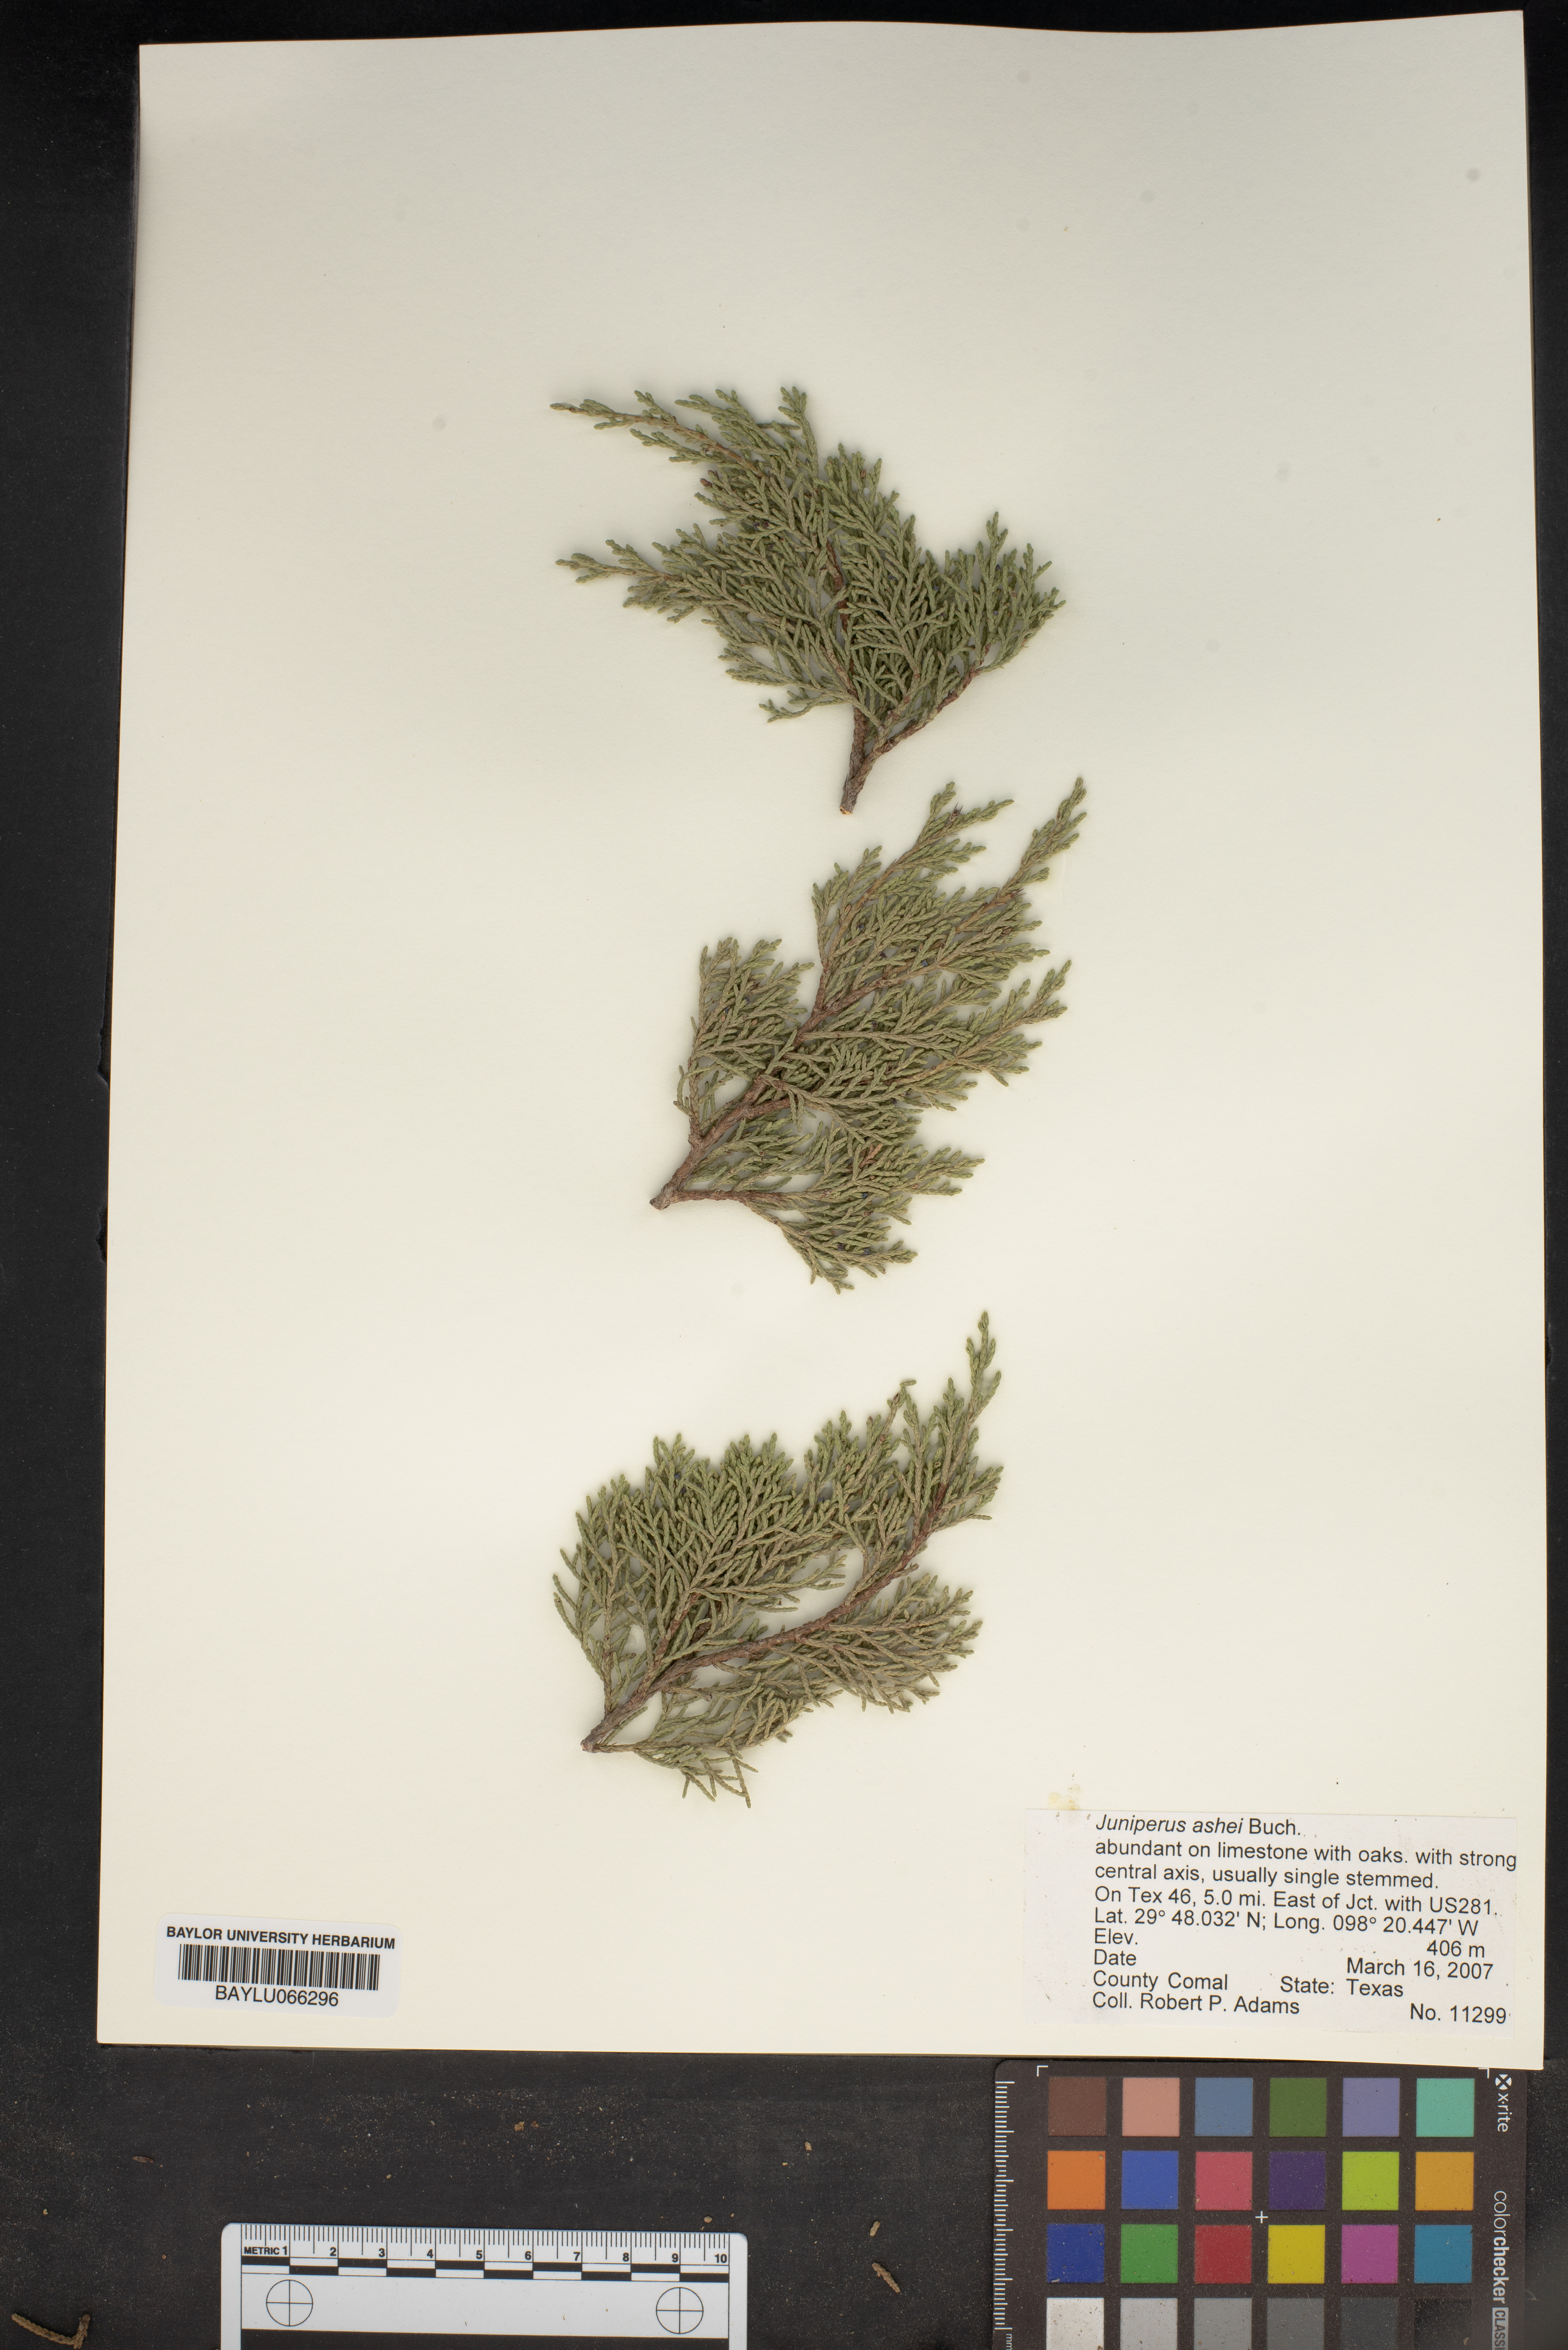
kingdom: Plantae
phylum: Tracheophyta
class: Pinopsida
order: Pinales
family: Cupressaceae
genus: Juniperus
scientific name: Juniperus ashei
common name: Mexican juniper
